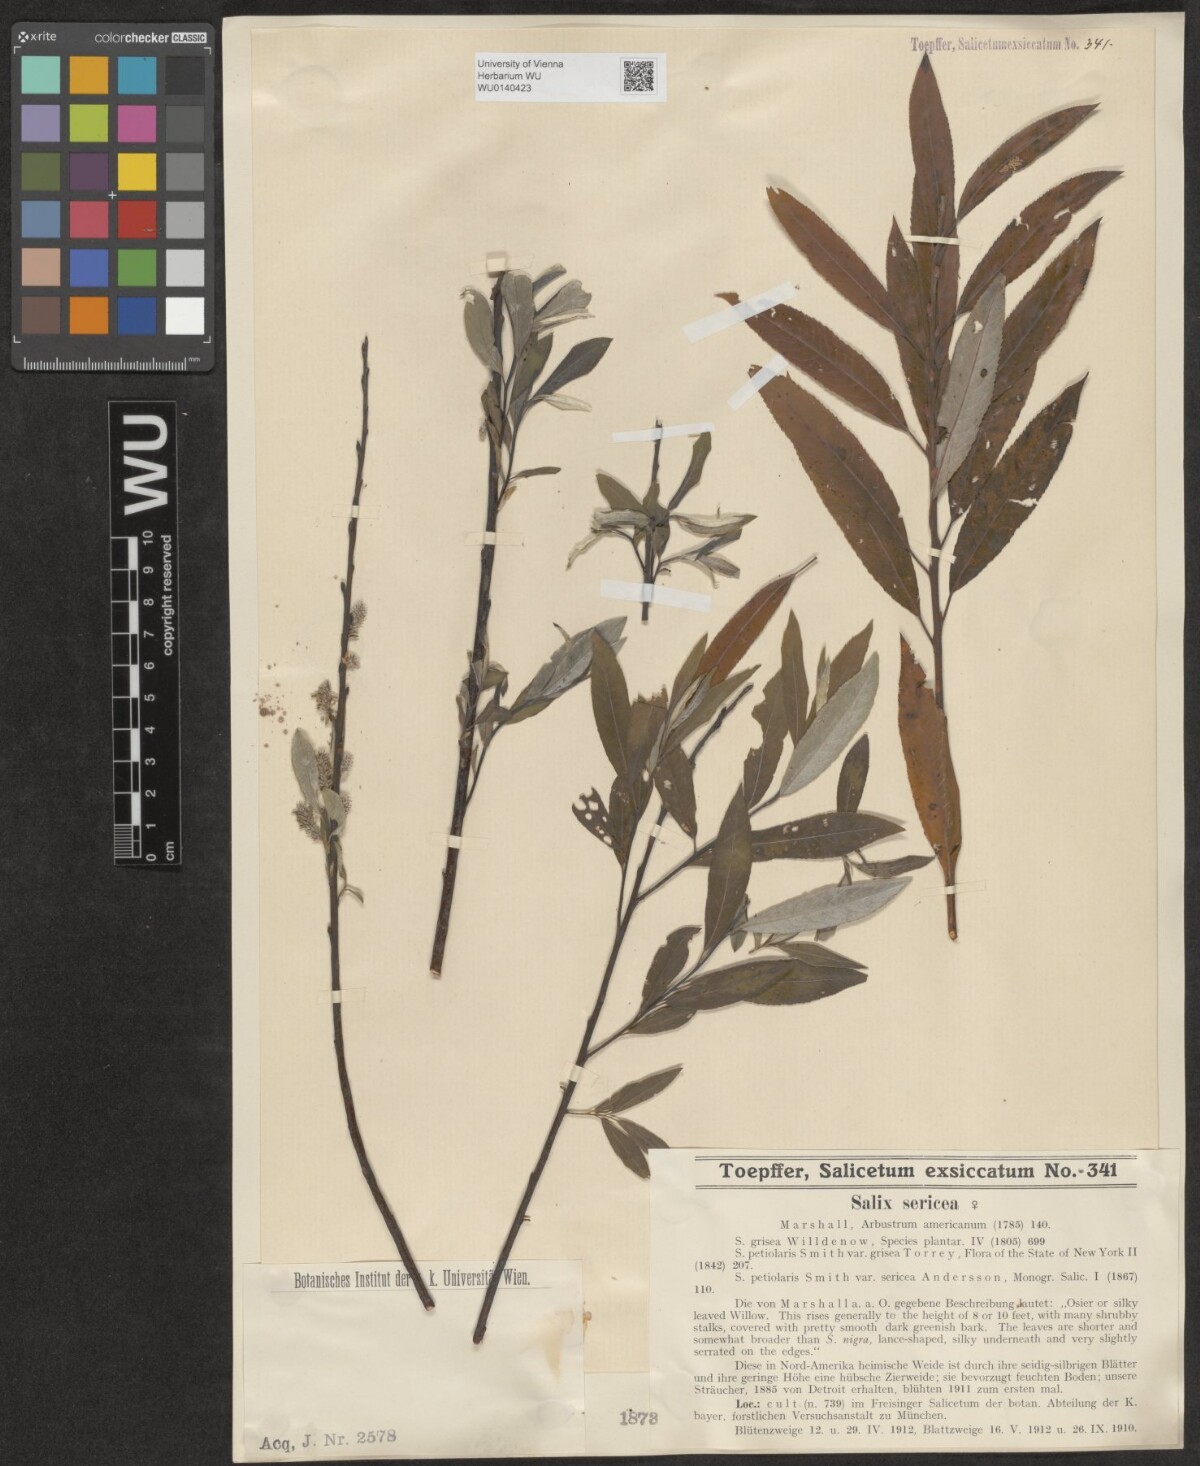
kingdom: Plantae
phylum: Tracheophyta
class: Magnoliopsida
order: Malpighiales
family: Salicaceae
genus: Salix
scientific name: Salix sericea
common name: Silky willow
